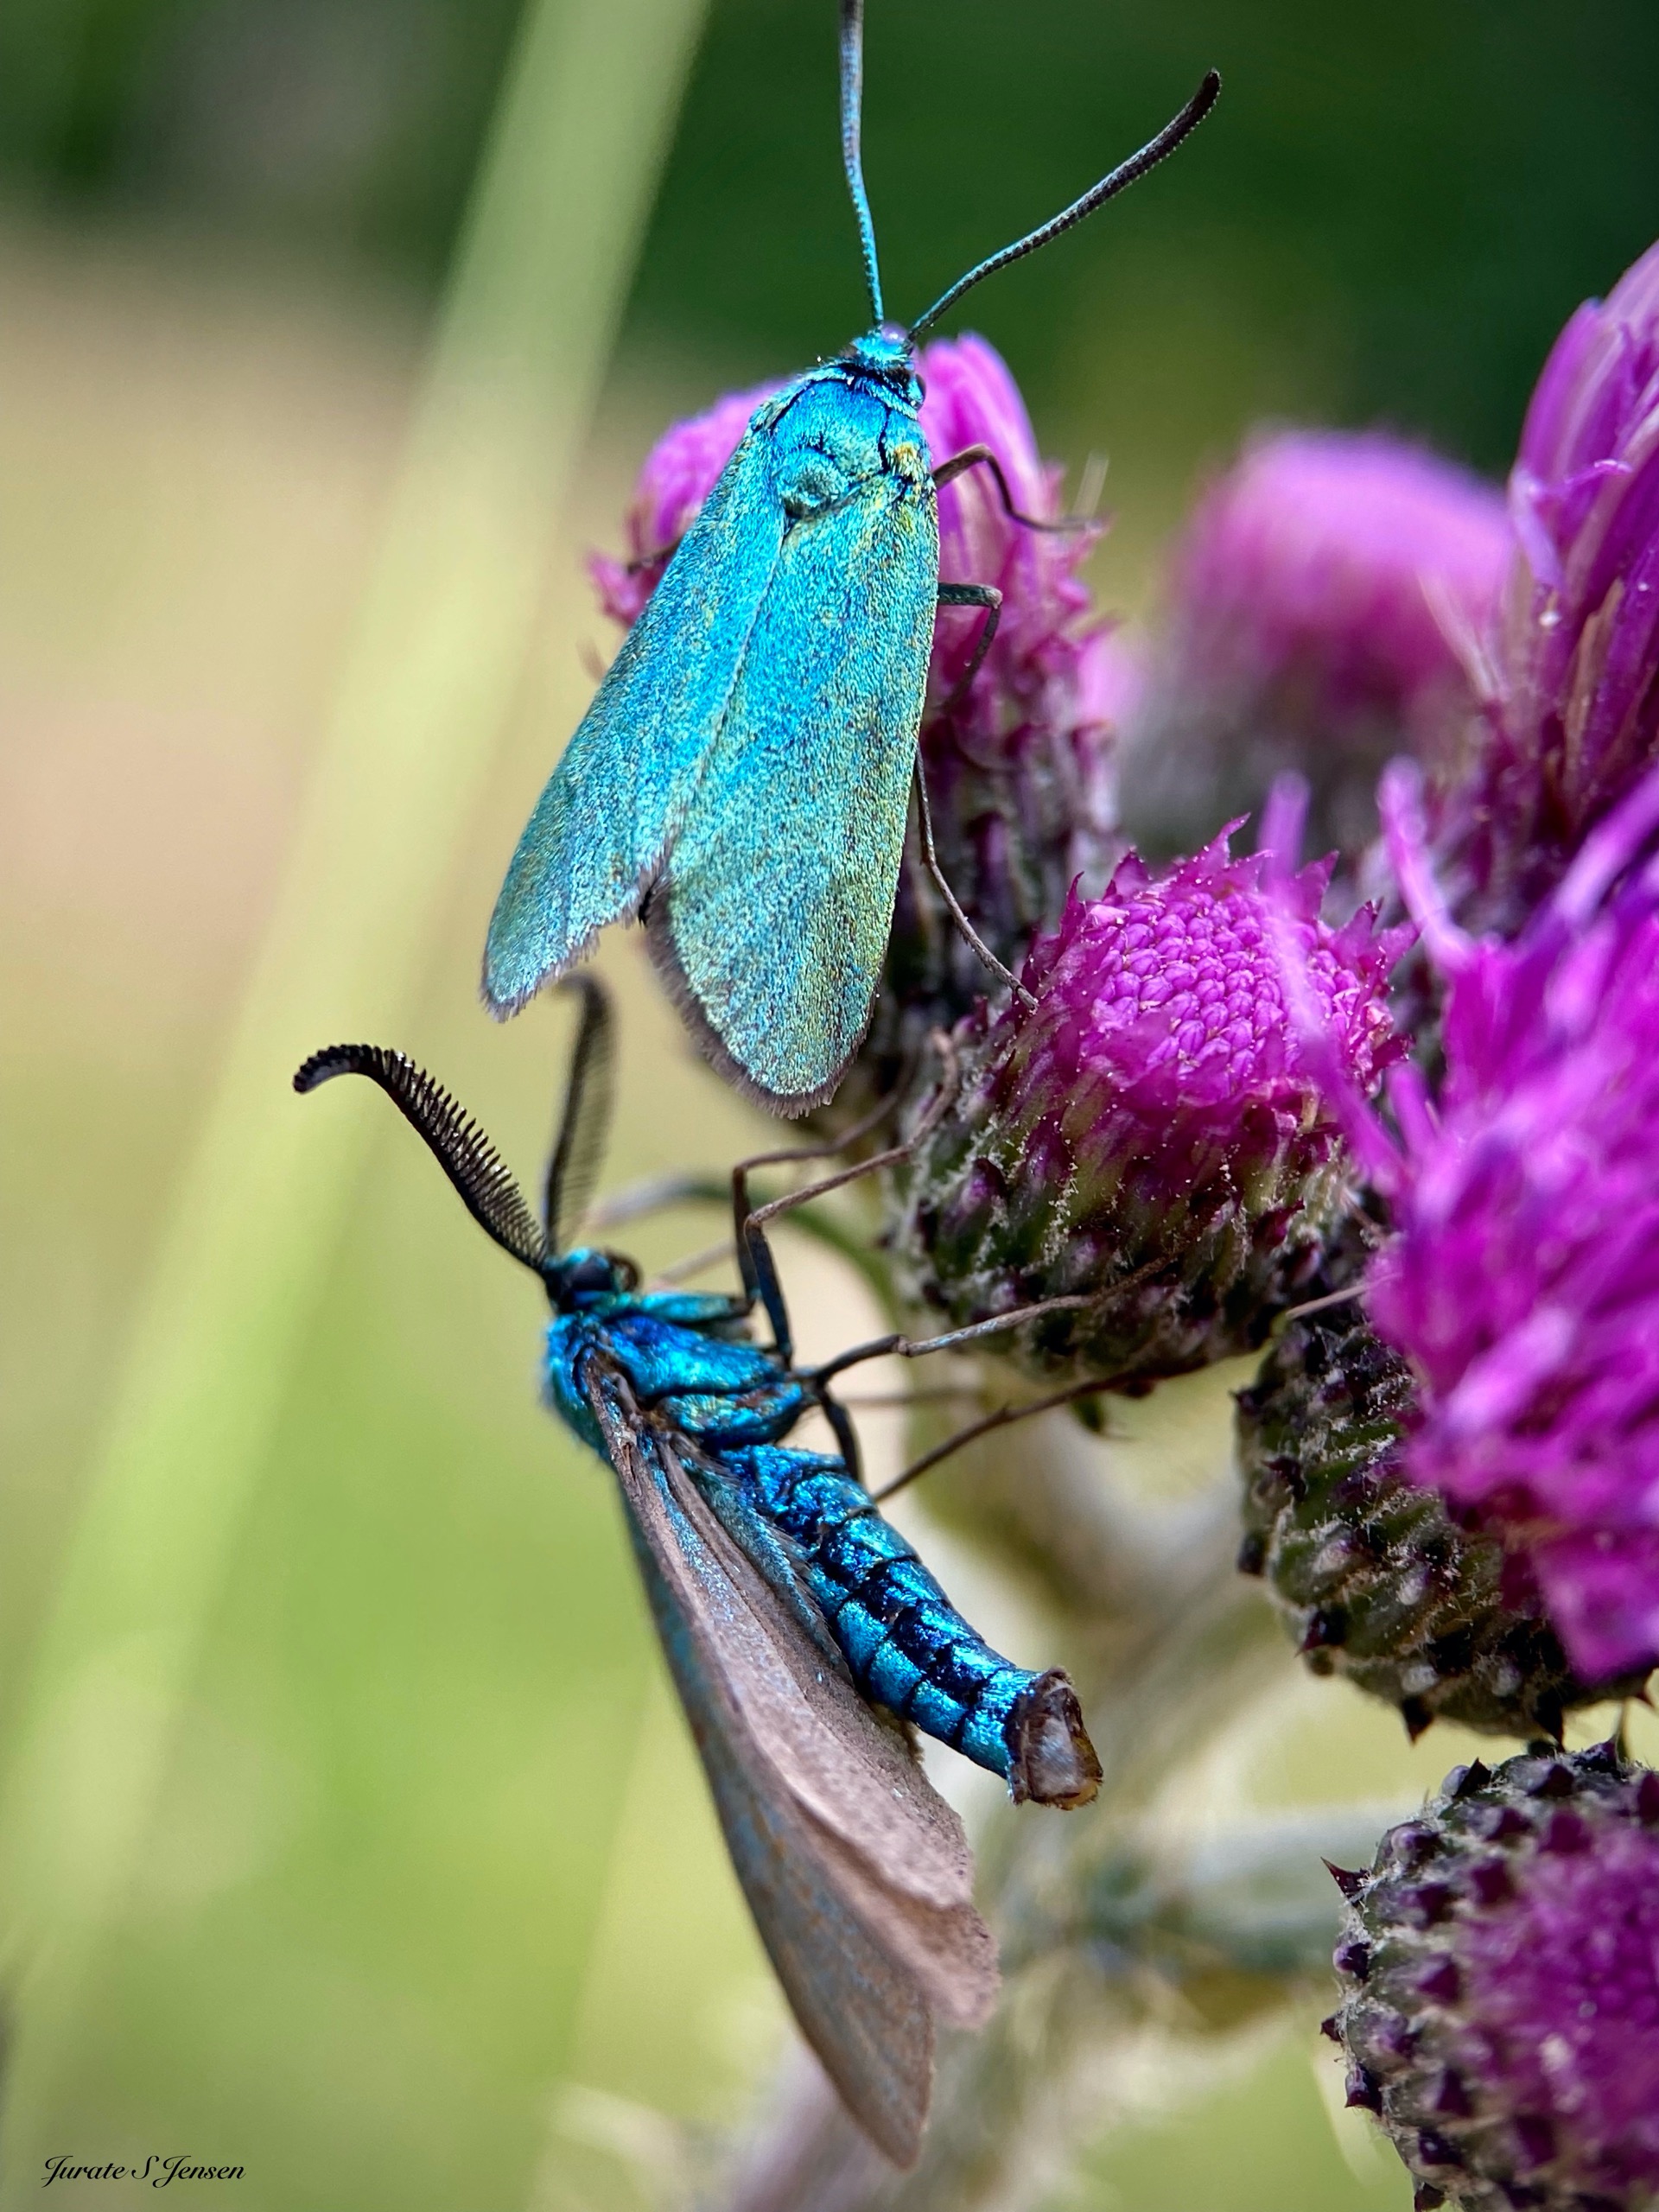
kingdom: Animalia
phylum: Arthropoda
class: Insecta
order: Lepidoptera
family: Zygaenidae
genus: Adscita
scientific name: Adscita statices
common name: Metalvinge
